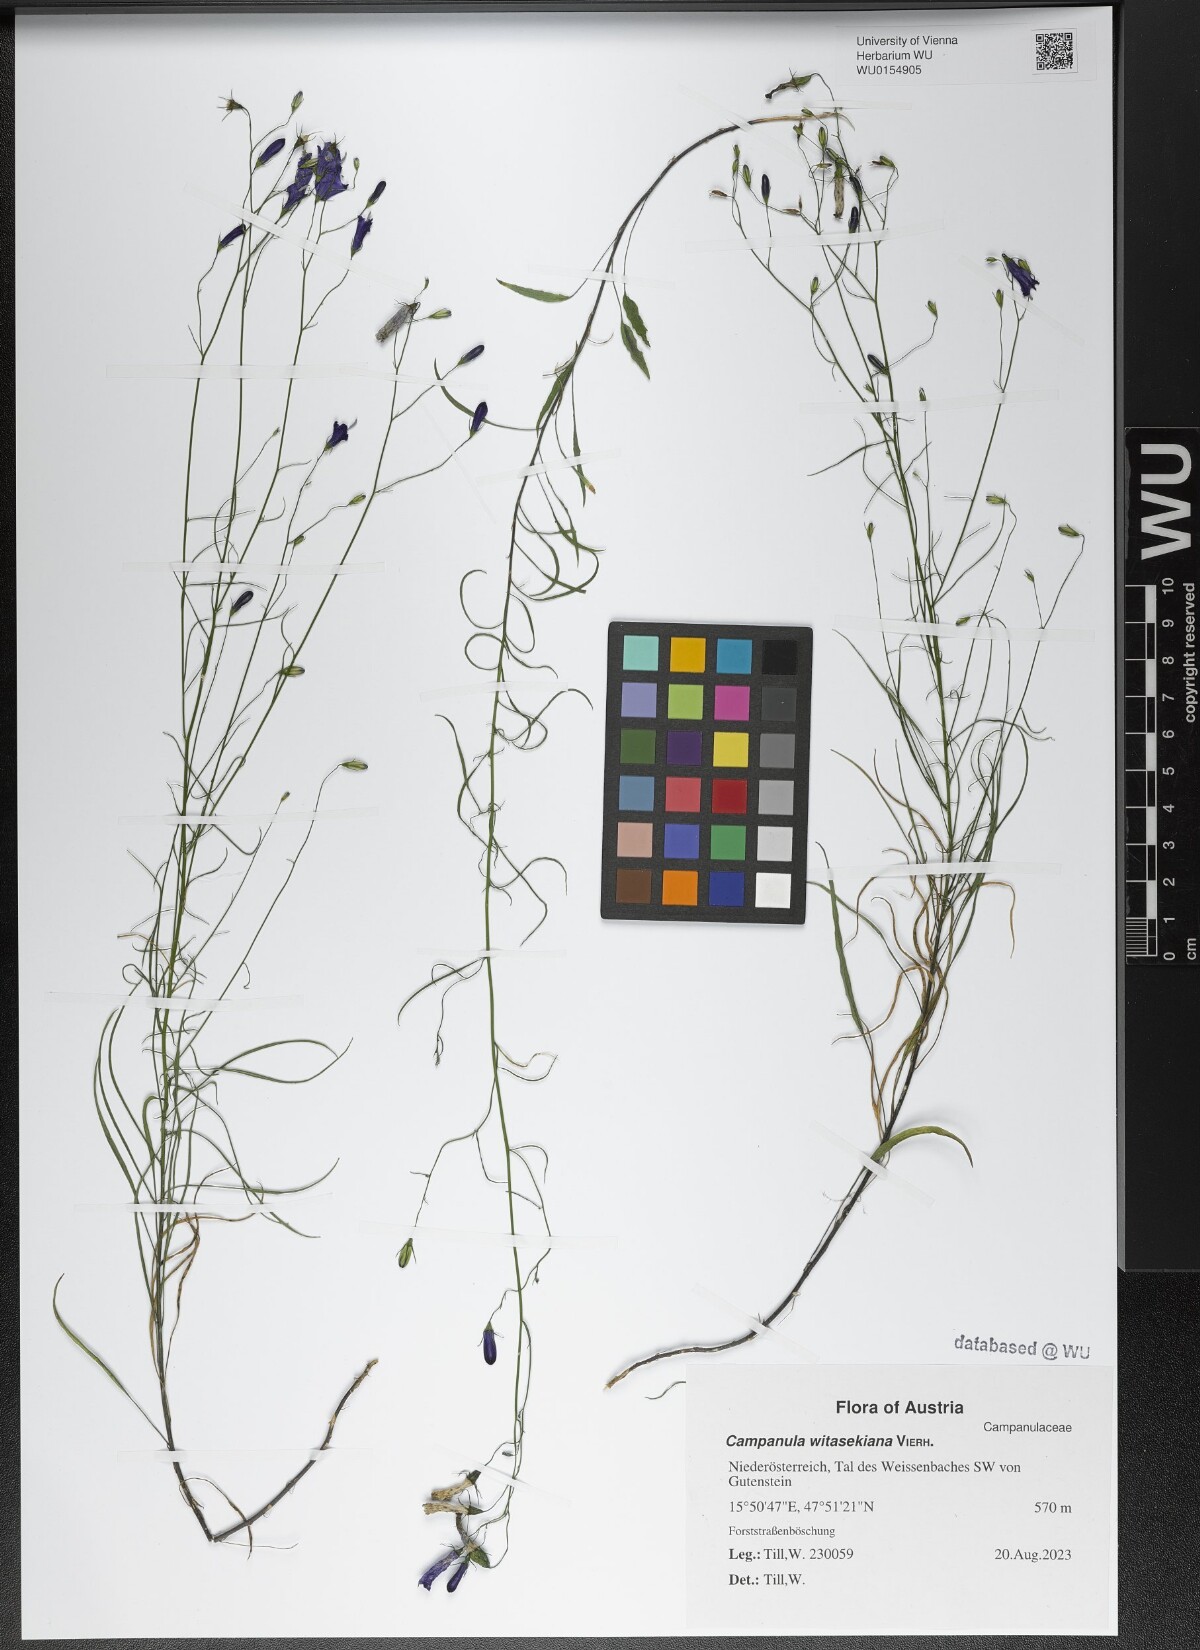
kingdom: Plantae
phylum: Tracheophyta
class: Magnoliopsida
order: Asterales
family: Campanulaceae
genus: Campanula
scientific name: Campanula witasekiana
